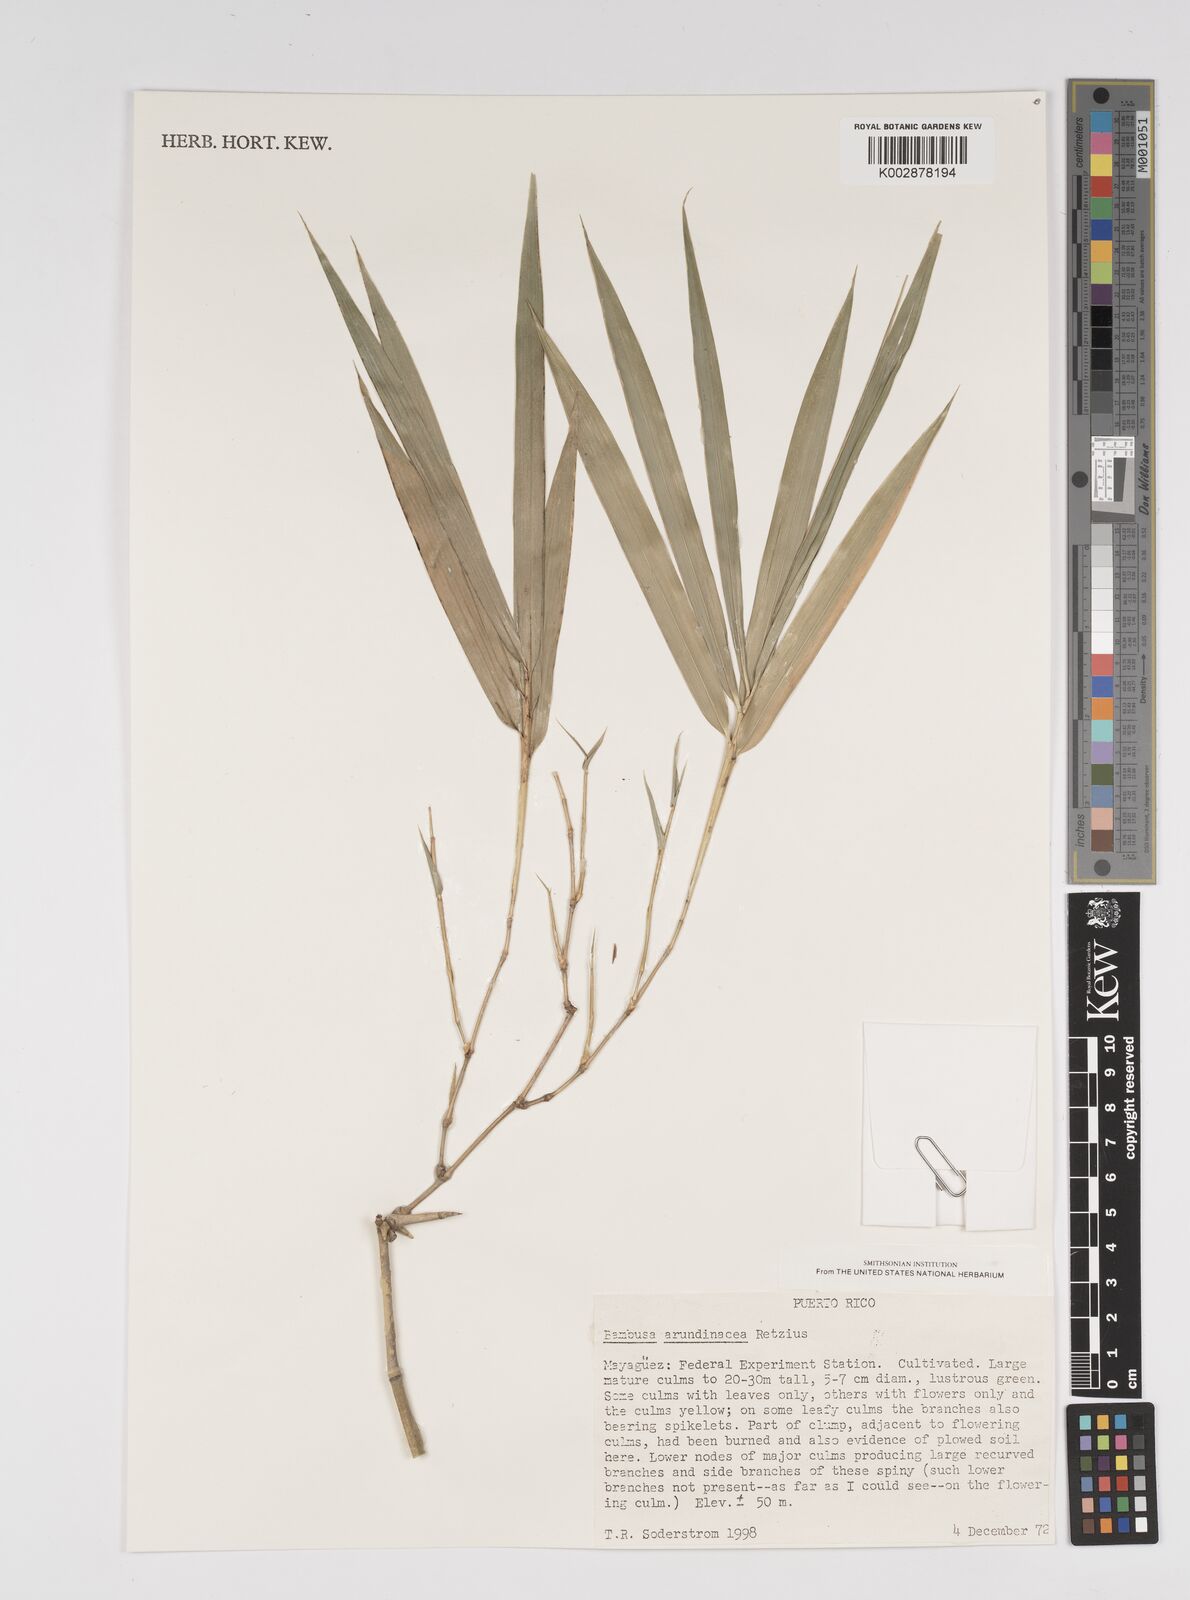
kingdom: Plantae
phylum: Tracheophyta
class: Liliopsida
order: Poales
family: Poaceae
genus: Bambusa
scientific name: Bambusa bambos
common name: Indian thorny bamboo
